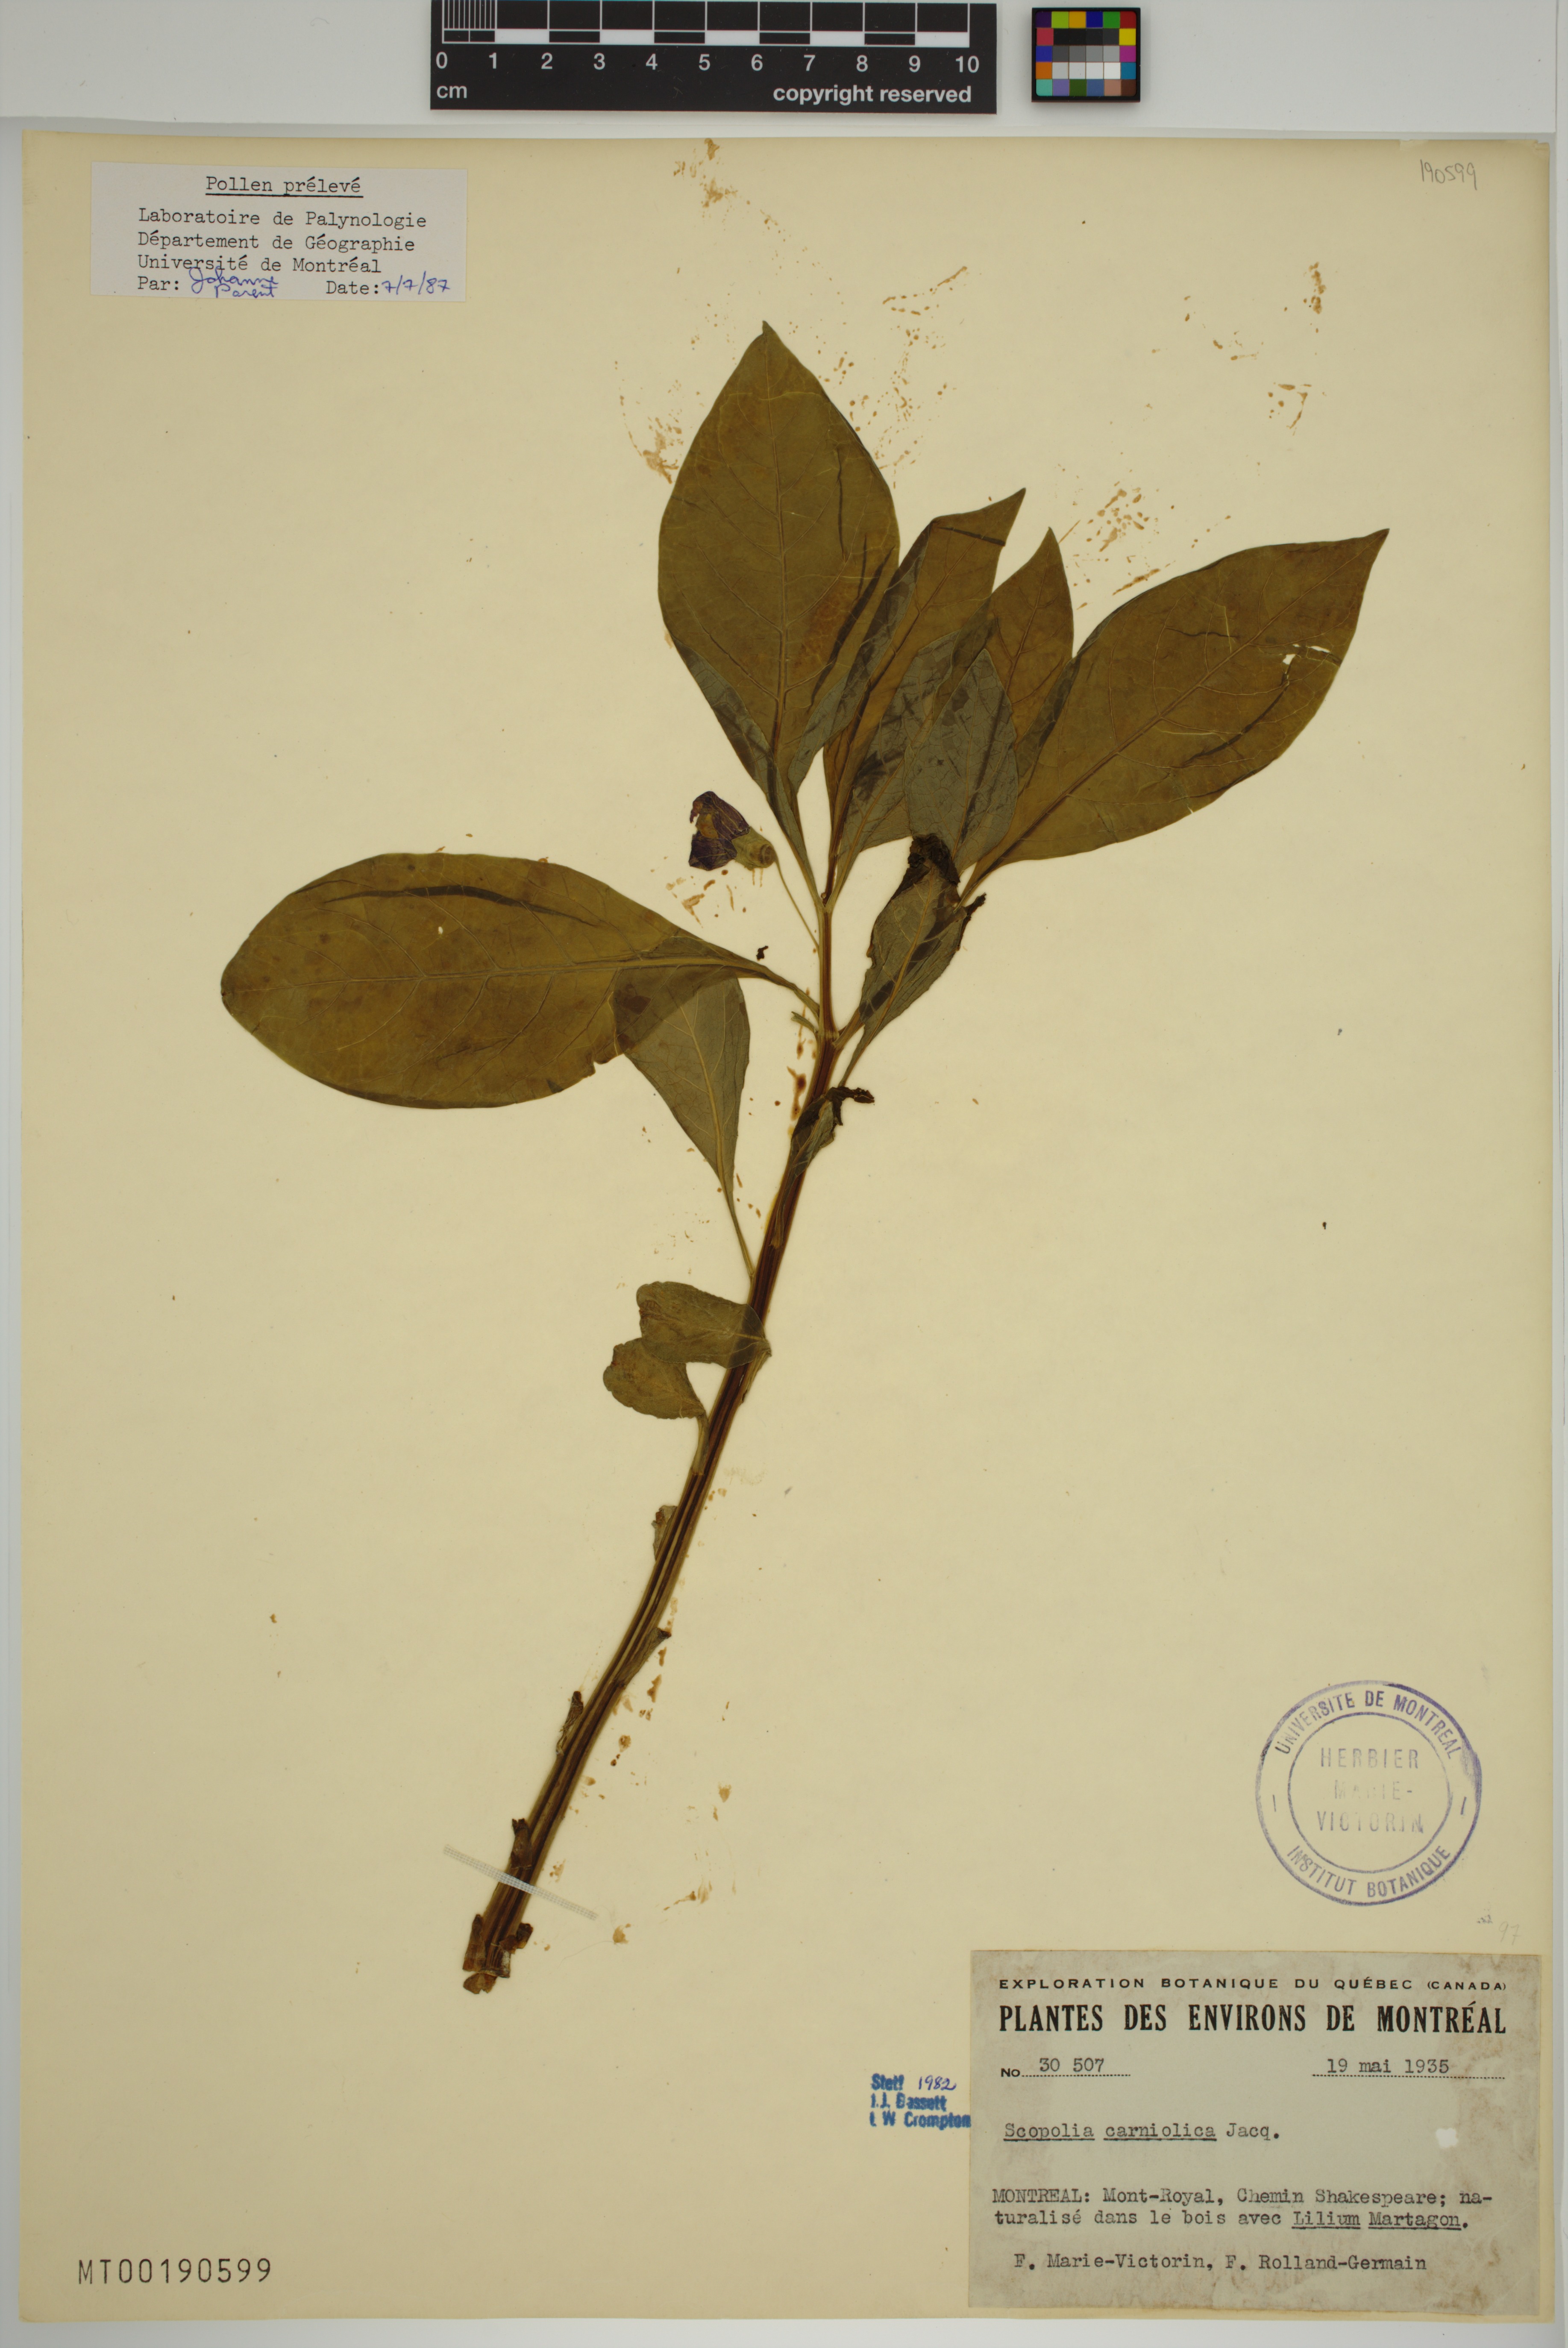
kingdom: Plantae
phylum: Tracheophyta
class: Magnoliopsida
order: Solanales
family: Solanaceae
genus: Scopolia
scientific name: Scopolia carniolica
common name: Scopolia
